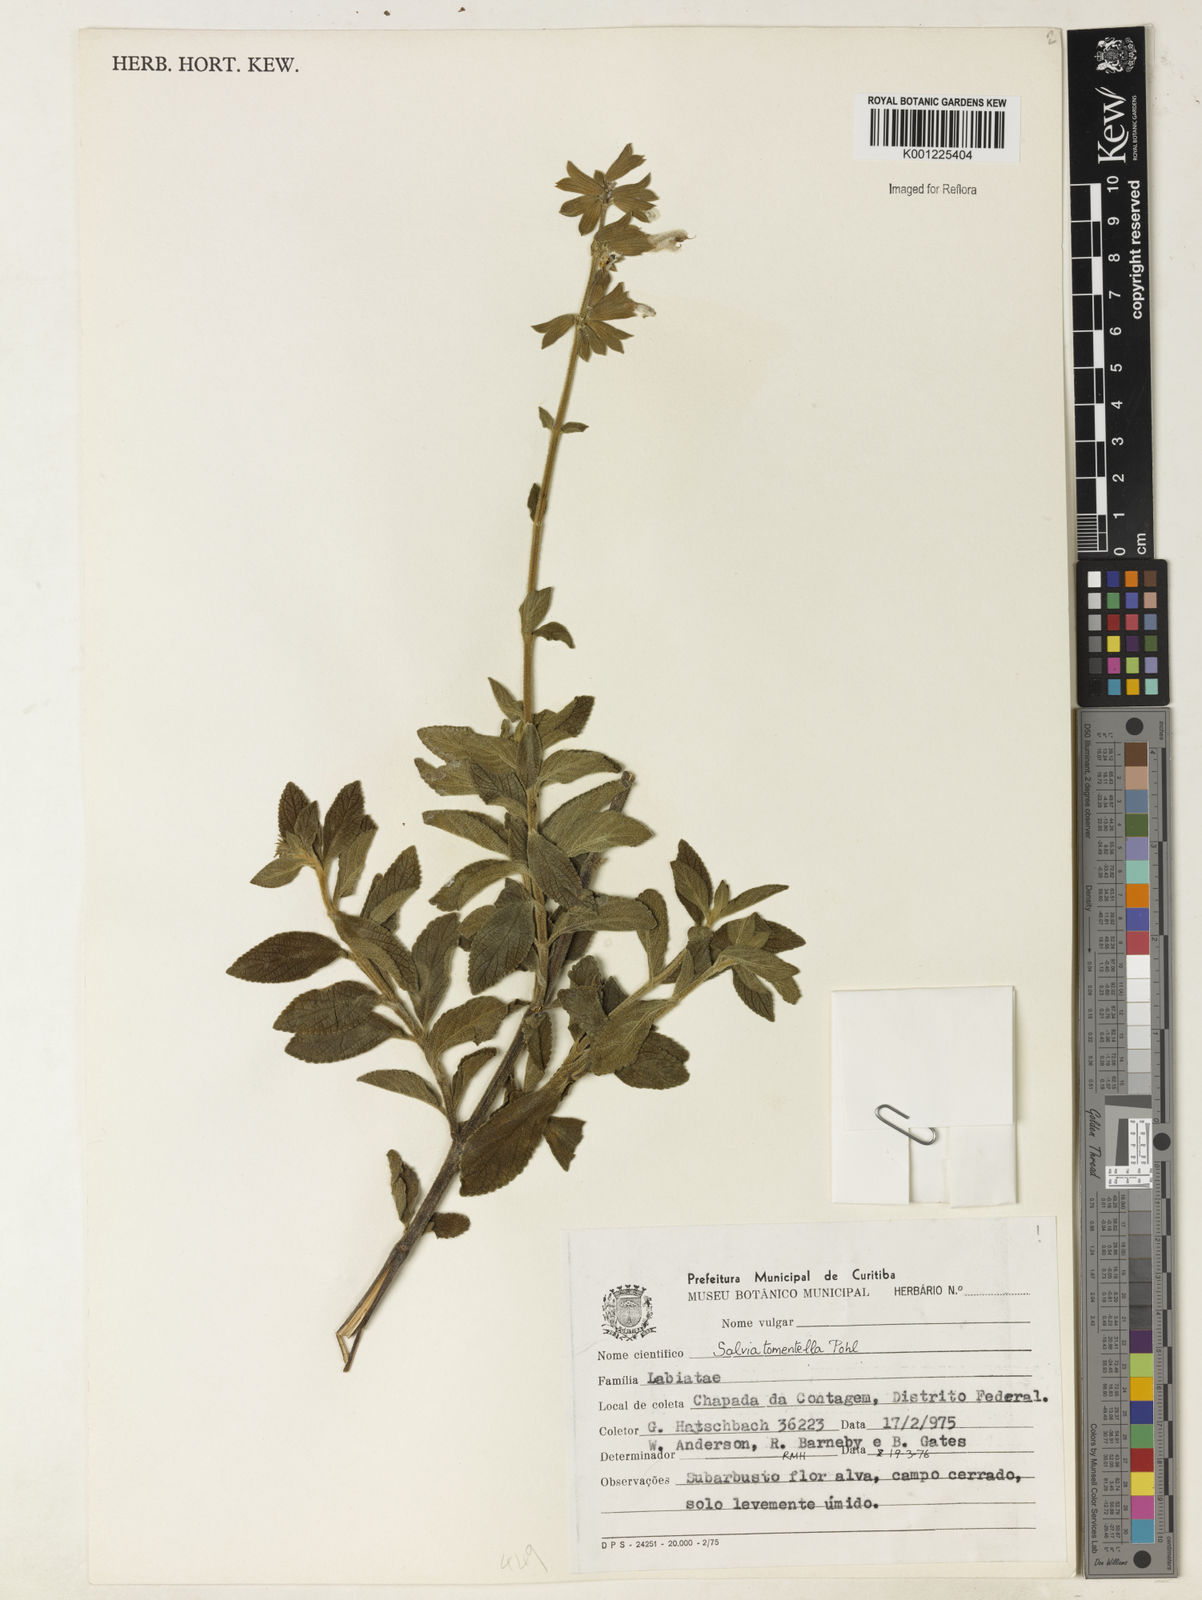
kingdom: Plantae
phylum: Tracheophyta
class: Magnoliopsida
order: Lamiales
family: Lamiaceae
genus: Salvia
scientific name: Salvia tomentella
